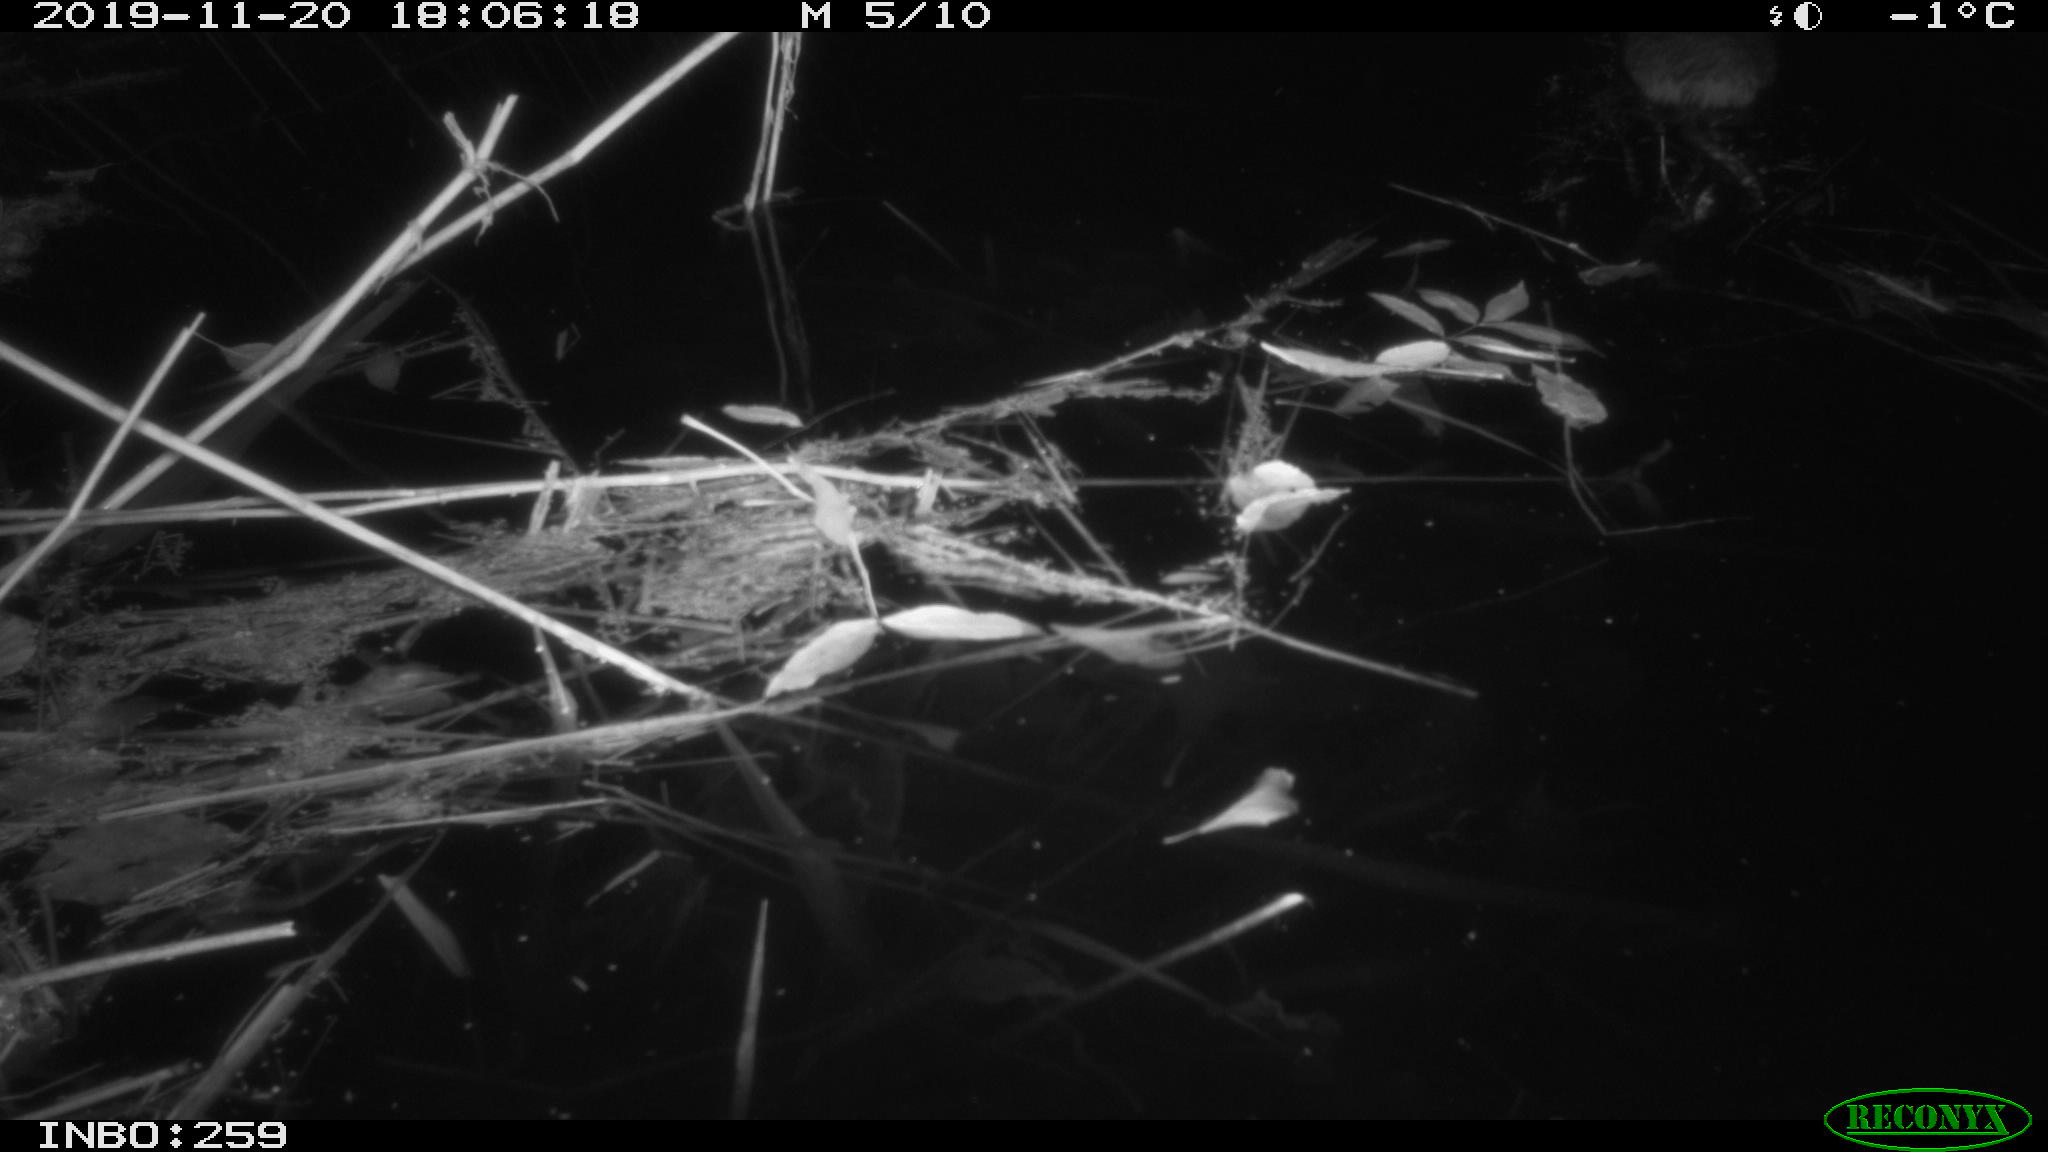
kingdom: Animalia
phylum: Chordata
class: Mammalia
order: Rodentia
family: Cricetidae
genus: Ondatra
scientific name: Ondatra zibethicus
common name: Muskrat
